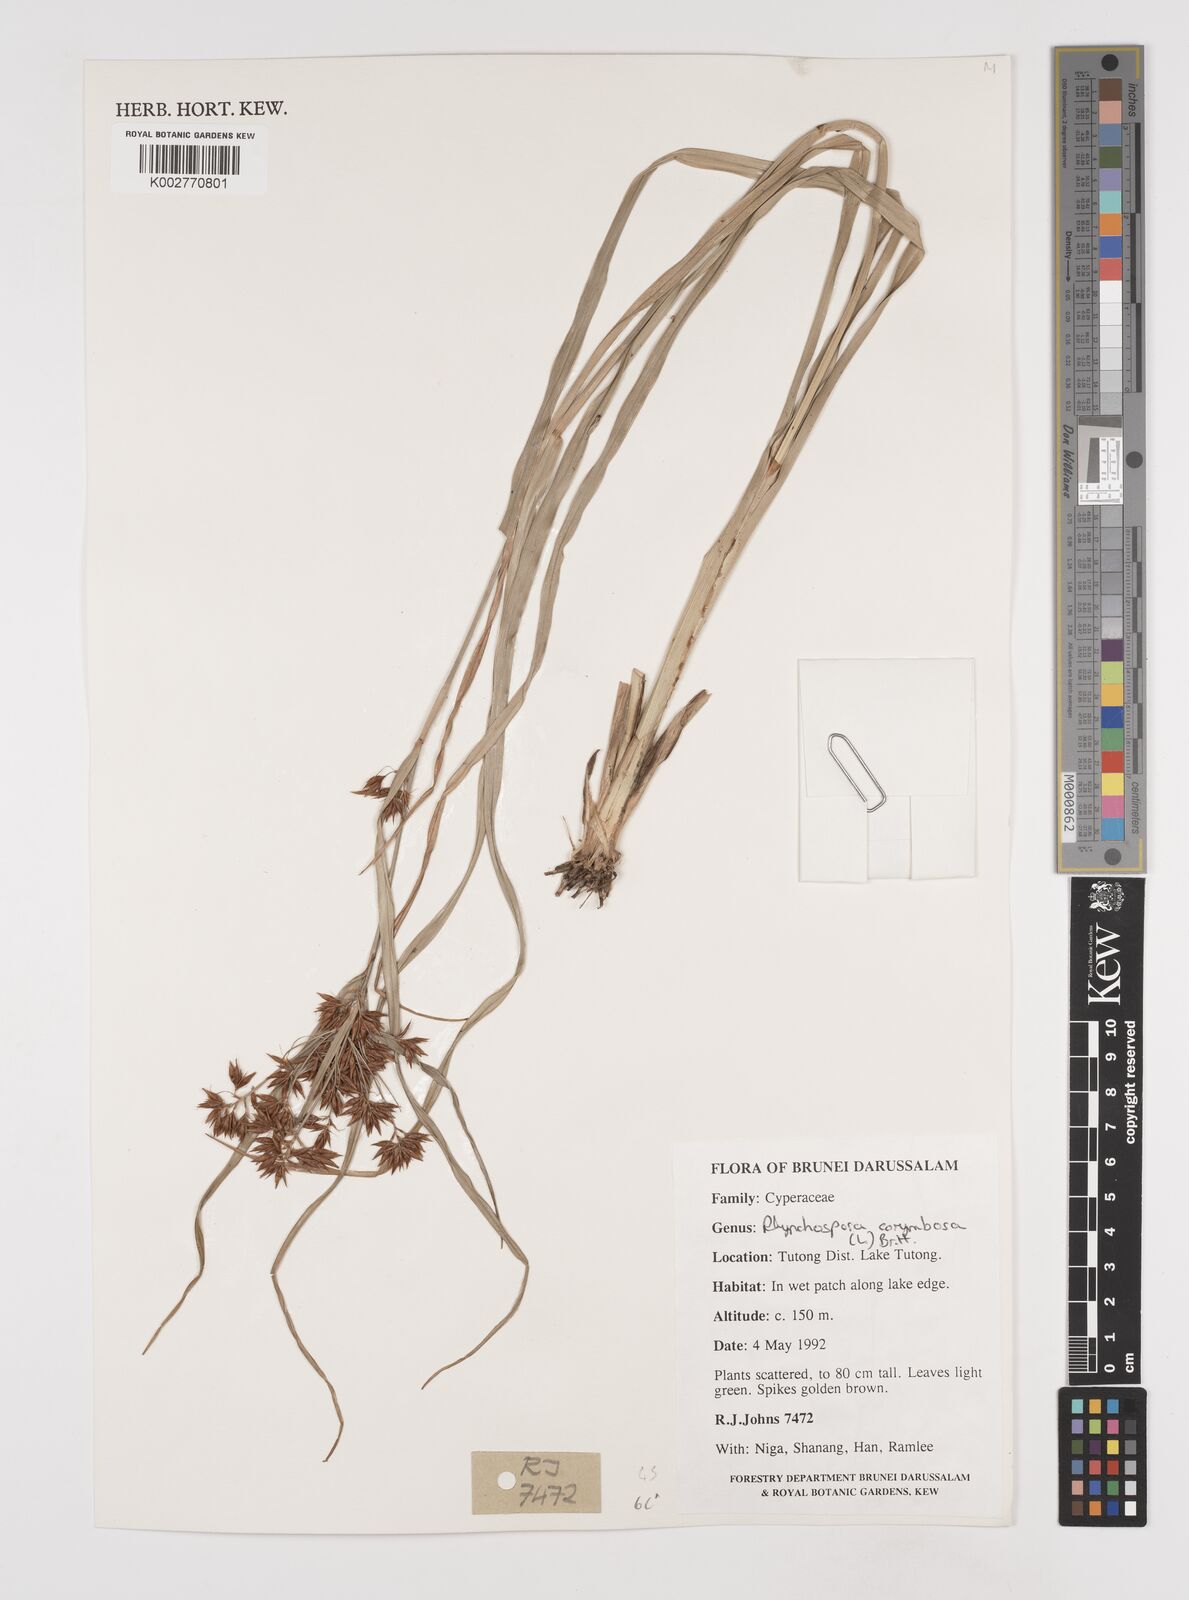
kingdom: Plantae
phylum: Tracheophyta
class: Liliopsida
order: Poales
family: Cyperaceae
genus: Rhynchospora
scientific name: Rhynchospora corymbosa
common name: Golden beak sedge
